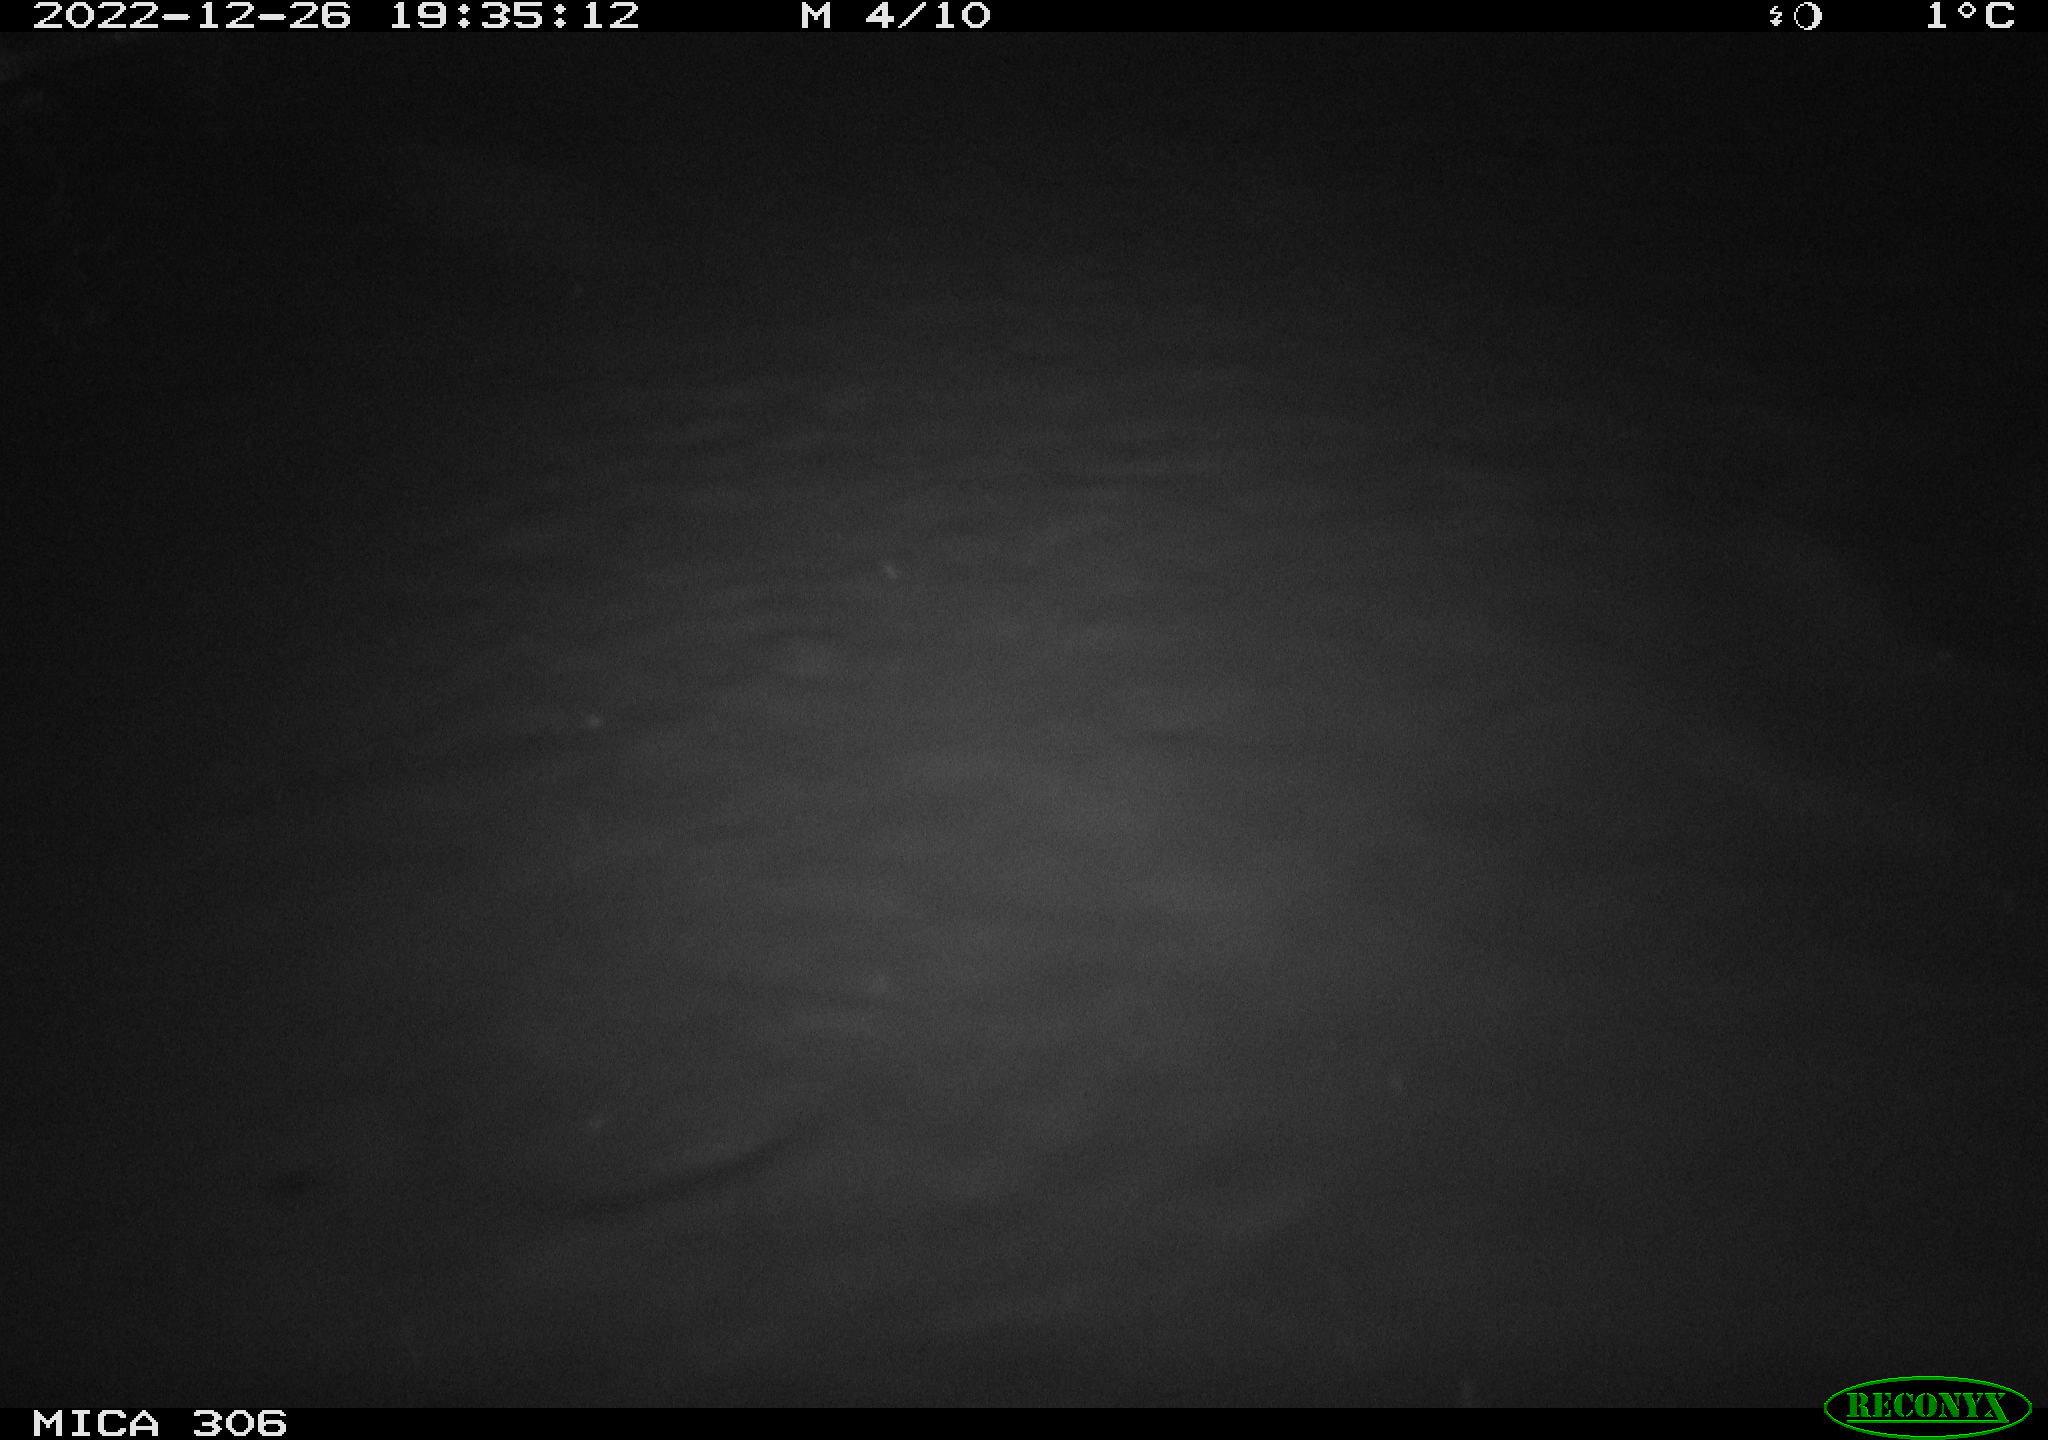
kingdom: Animalia
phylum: Chordata
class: Mammalia
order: Rodentia
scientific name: Rodentia
